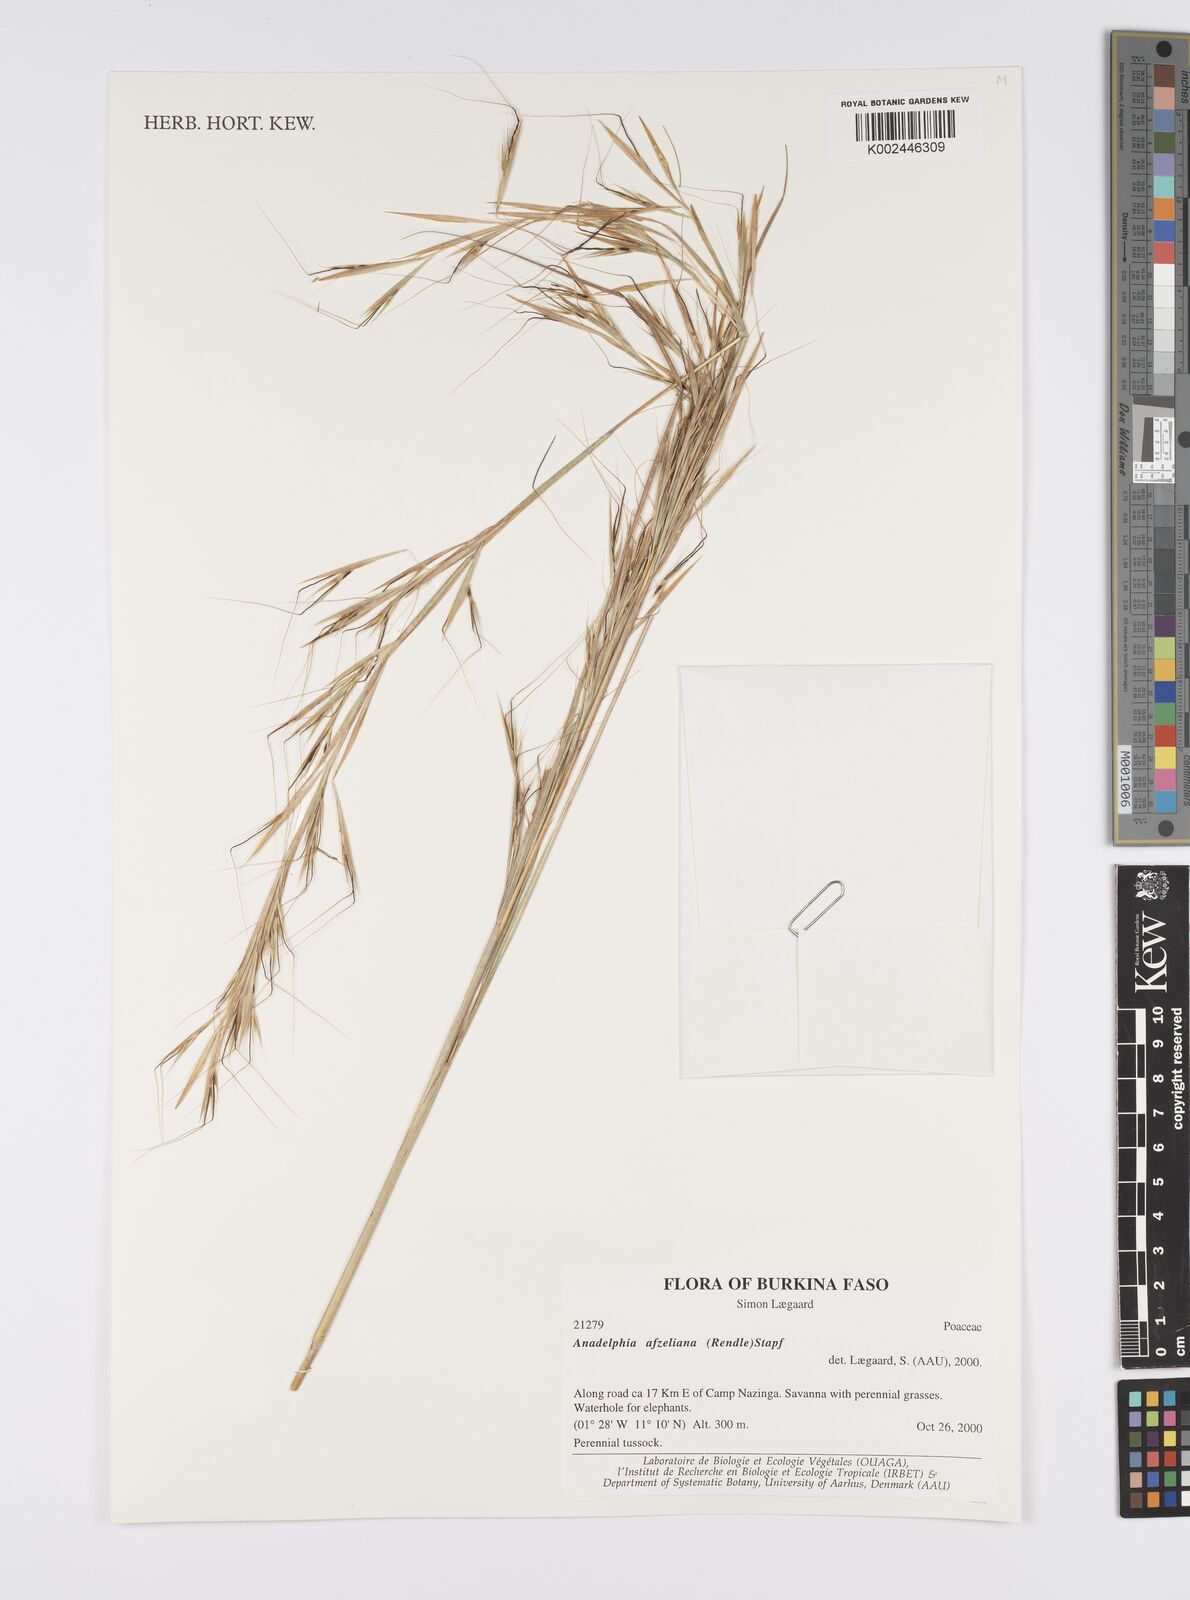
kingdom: Plantae
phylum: Tracheophyta
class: Liliopsida
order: Poales
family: Poaceae
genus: Anadelphia
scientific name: Anadelphia afzeliana
